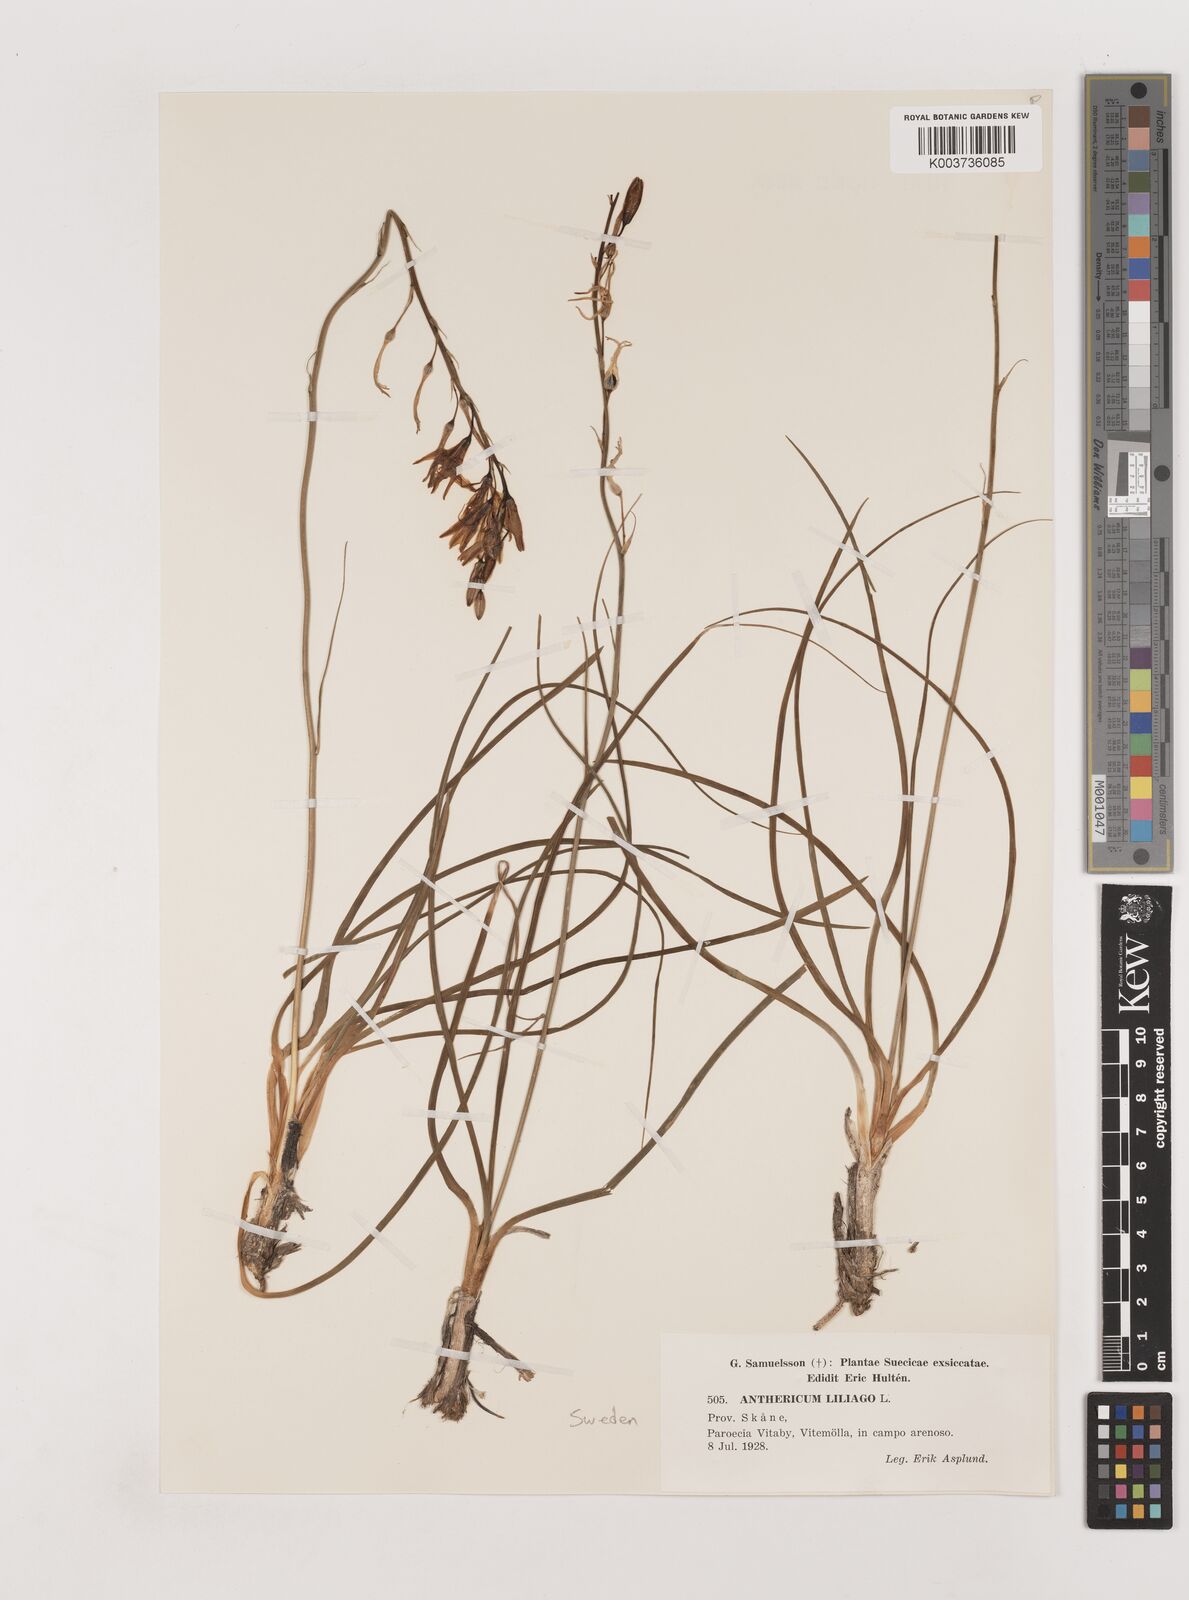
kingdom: Plantae
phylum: Tracheophyta
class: Liliopsida
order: Asparagales
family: Asparagaceae
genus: Anthericum
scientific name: Anthericum liliago
